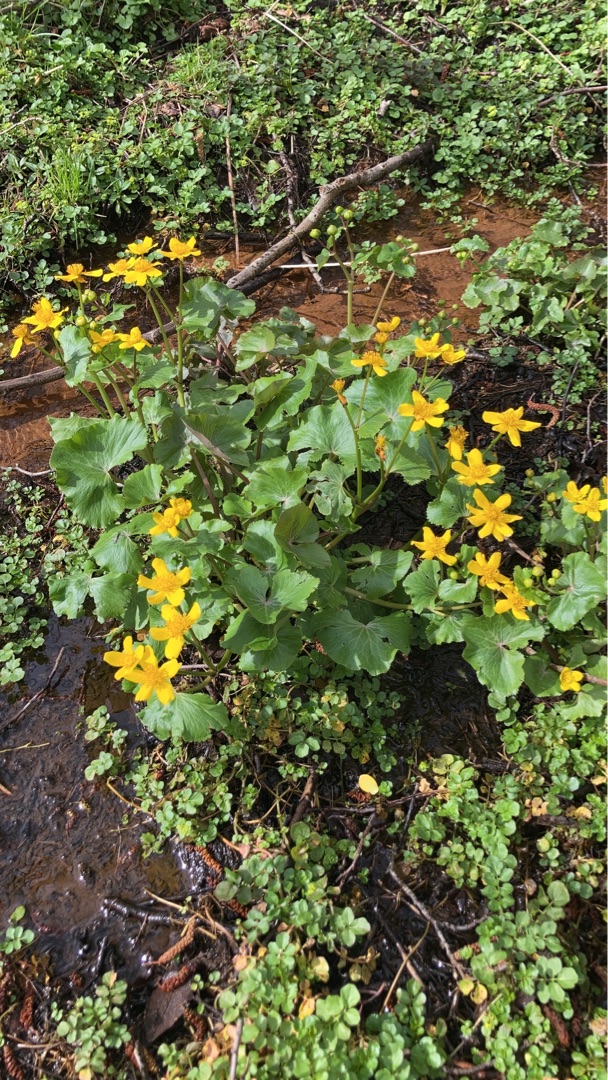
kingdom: Plantae
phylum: Tracheophyta
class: Magnoliopsida
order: Ranunculales
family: Ranunculaceae
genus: Caltha
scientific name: Caltha palustris
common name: Eng-kabbeleje
